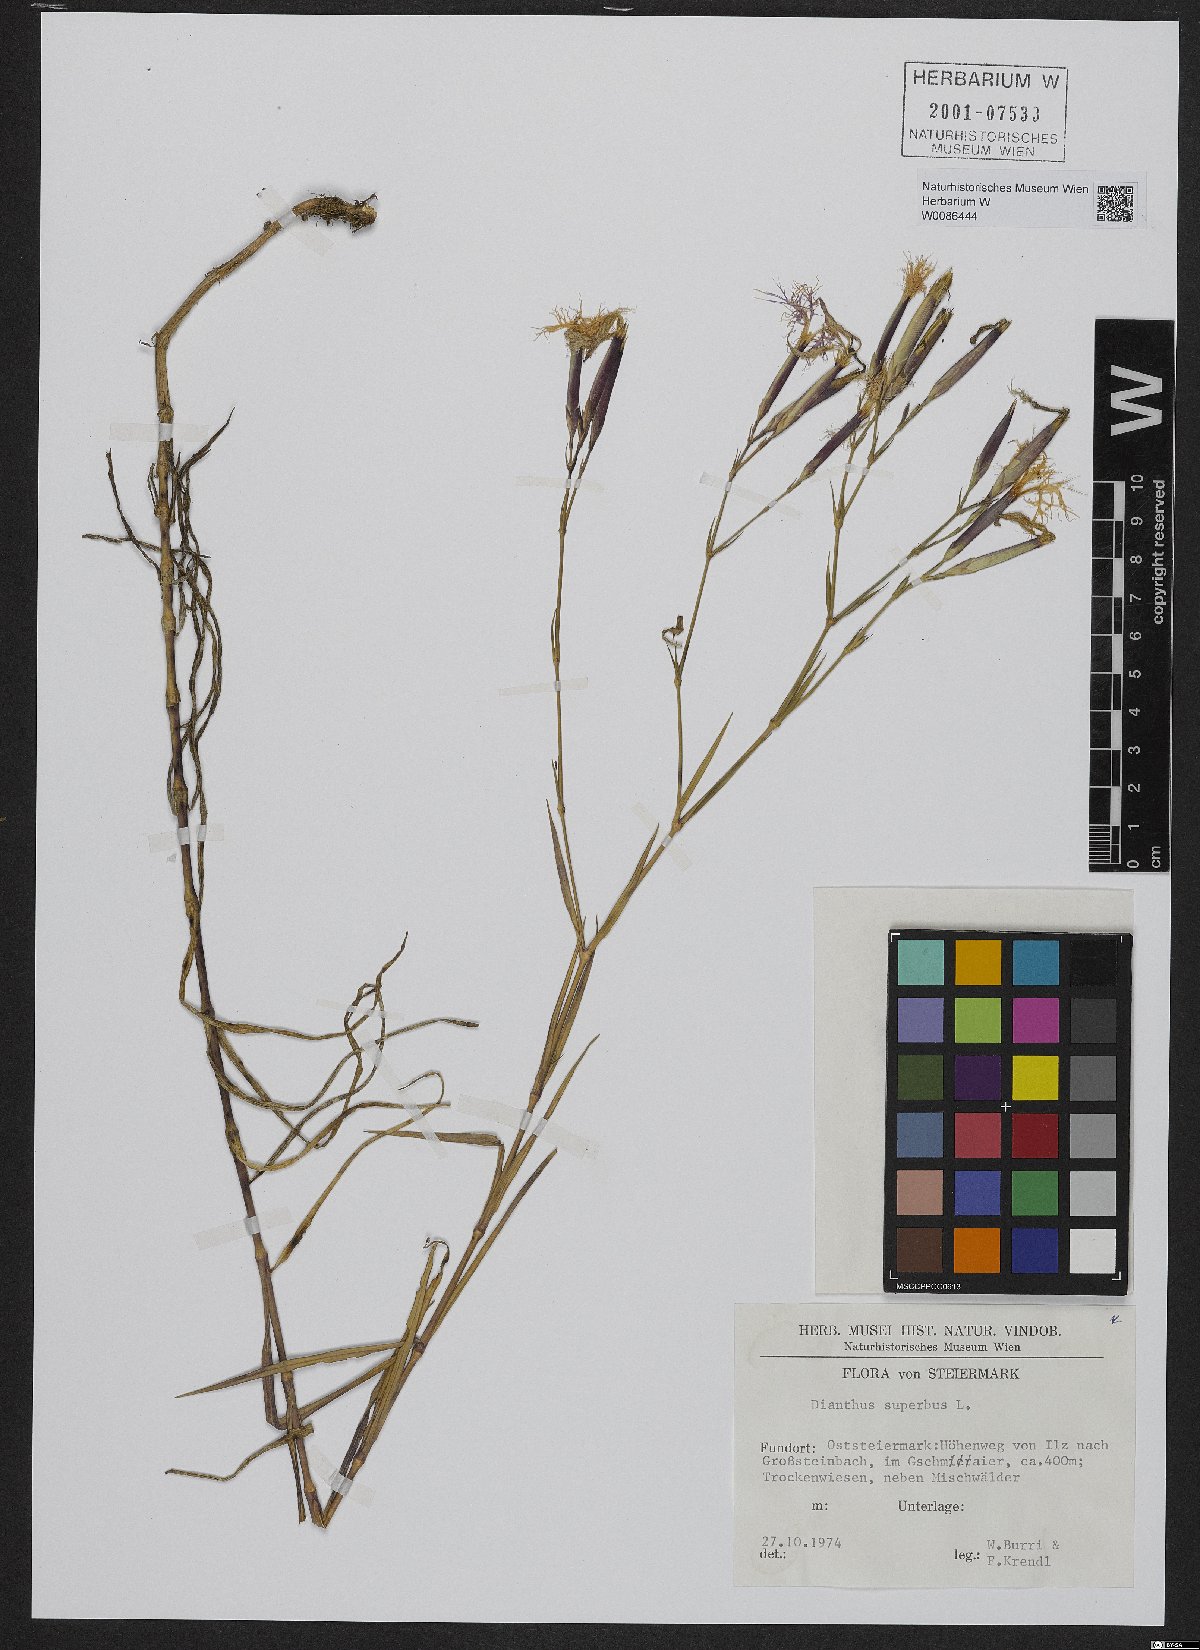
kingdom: Plantae
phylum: Tracheophyta
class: Magnoliopsida
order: Caryophyllales
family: Caryophyllaceae
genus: Dianthus
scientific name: Dianthus superbus
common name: Fringed pink
